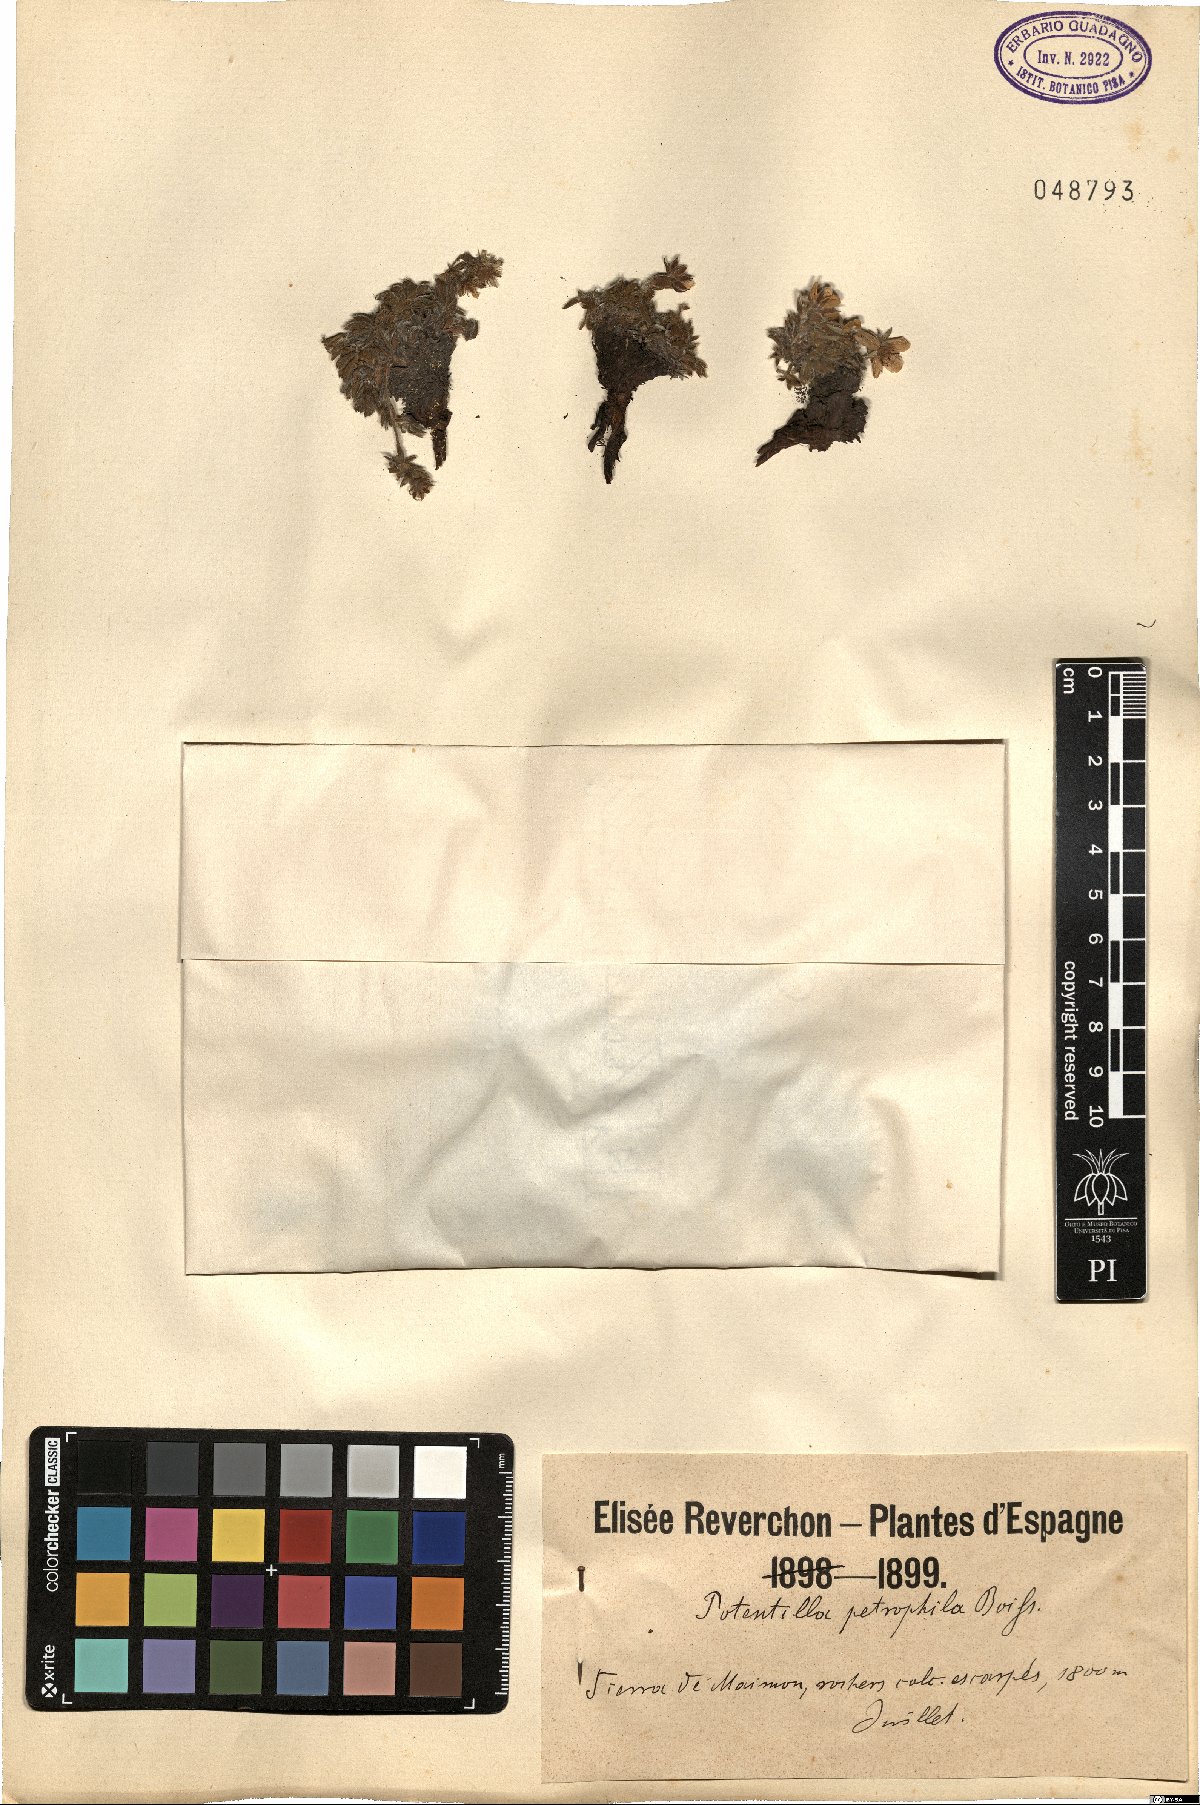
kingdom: Plantae
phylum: Tracheophyta
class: Magnoliopsida
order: Rosales
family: Rosaceae
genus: Potentilla
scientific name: Potentilla caulescens
